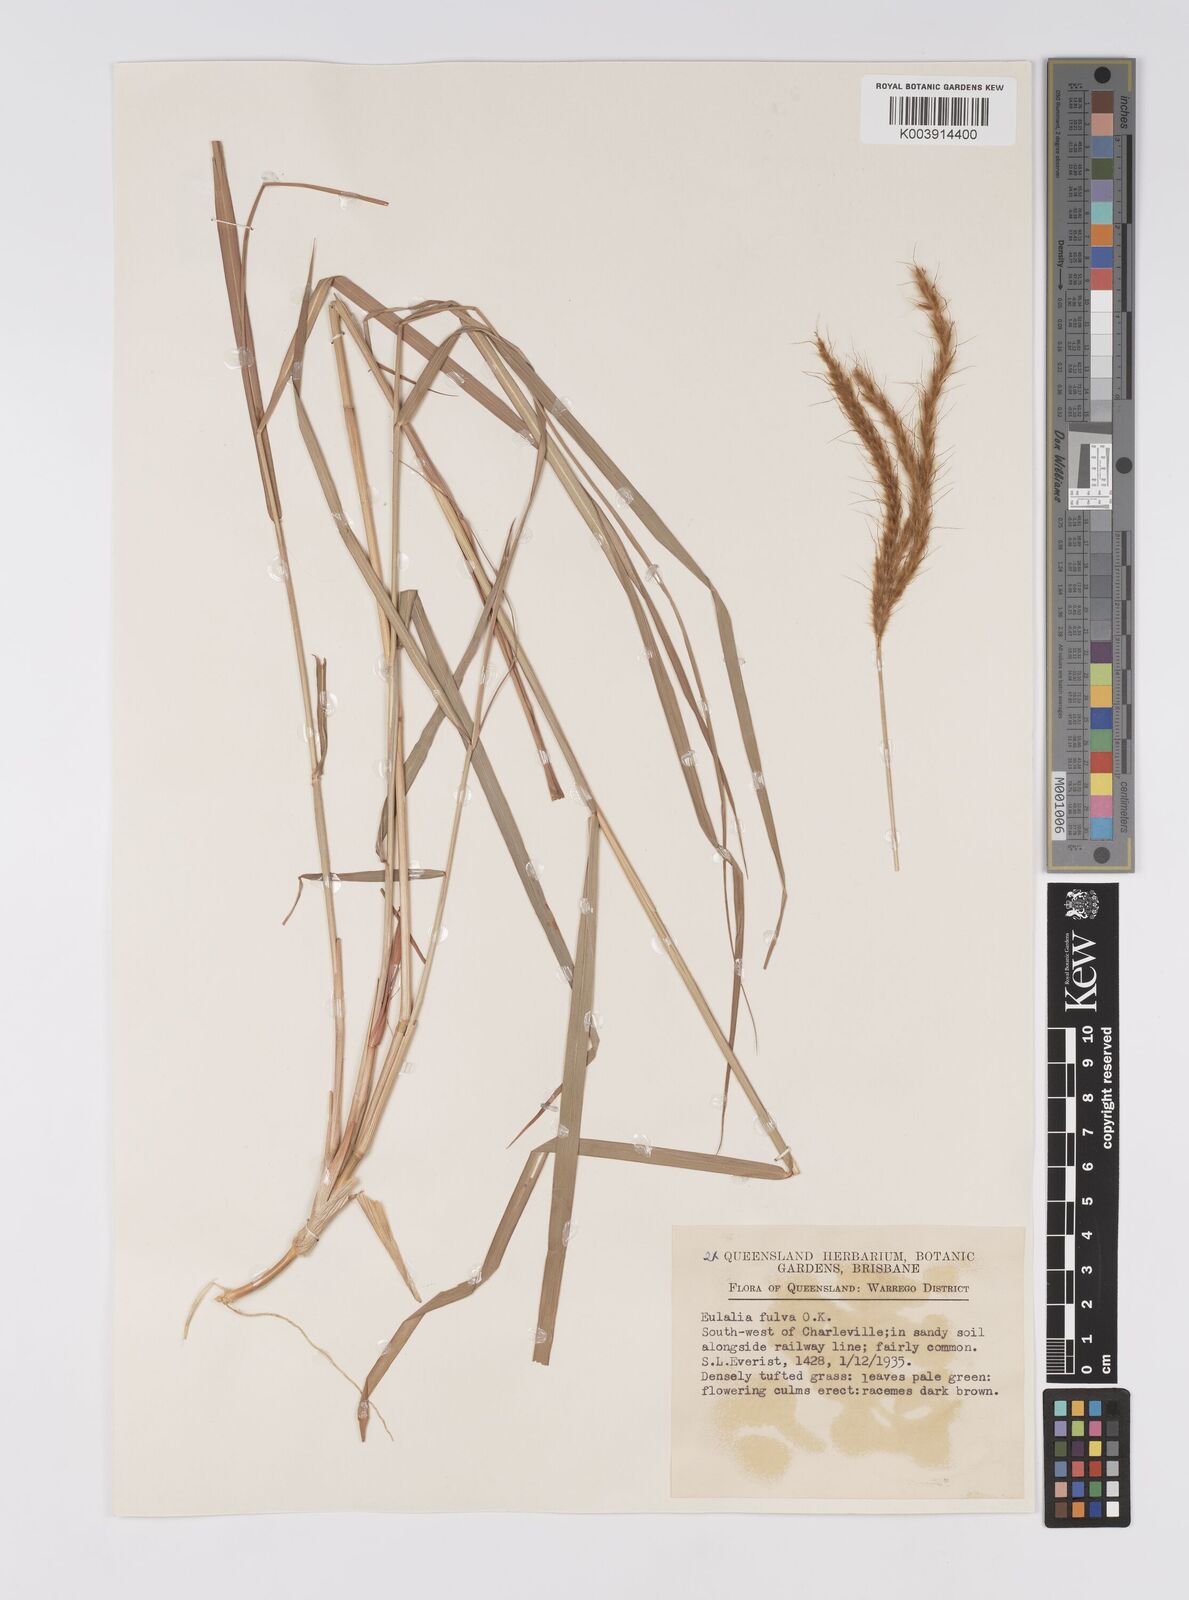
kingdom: Plantae
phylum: Tracheophyta
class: Liliopsida
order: Poales
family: Poaceae
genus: Eulalia
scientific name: Eulalia aurea
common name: Silky browntop
